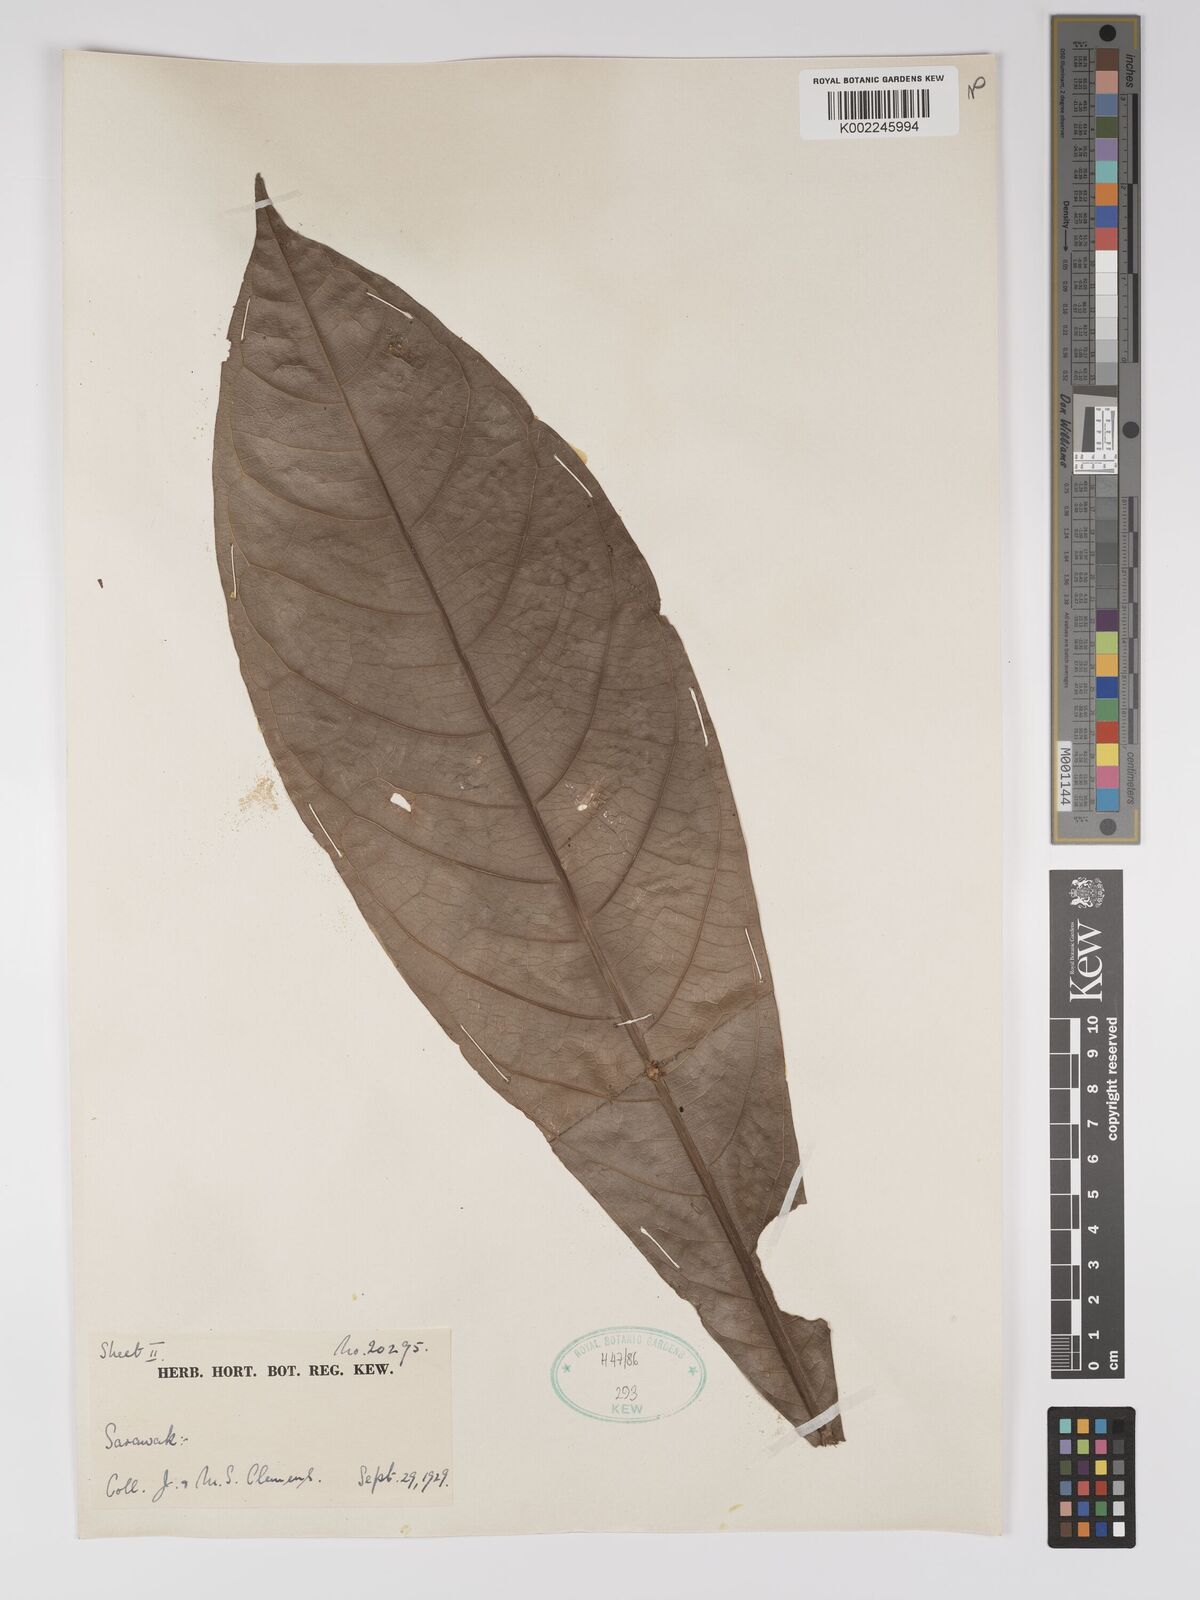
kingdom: Plantae
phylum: Tracheophyta
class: Magnoliopsida
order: Malpighiales
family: Euphorbiaceae
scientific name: Euphorbiaceae
